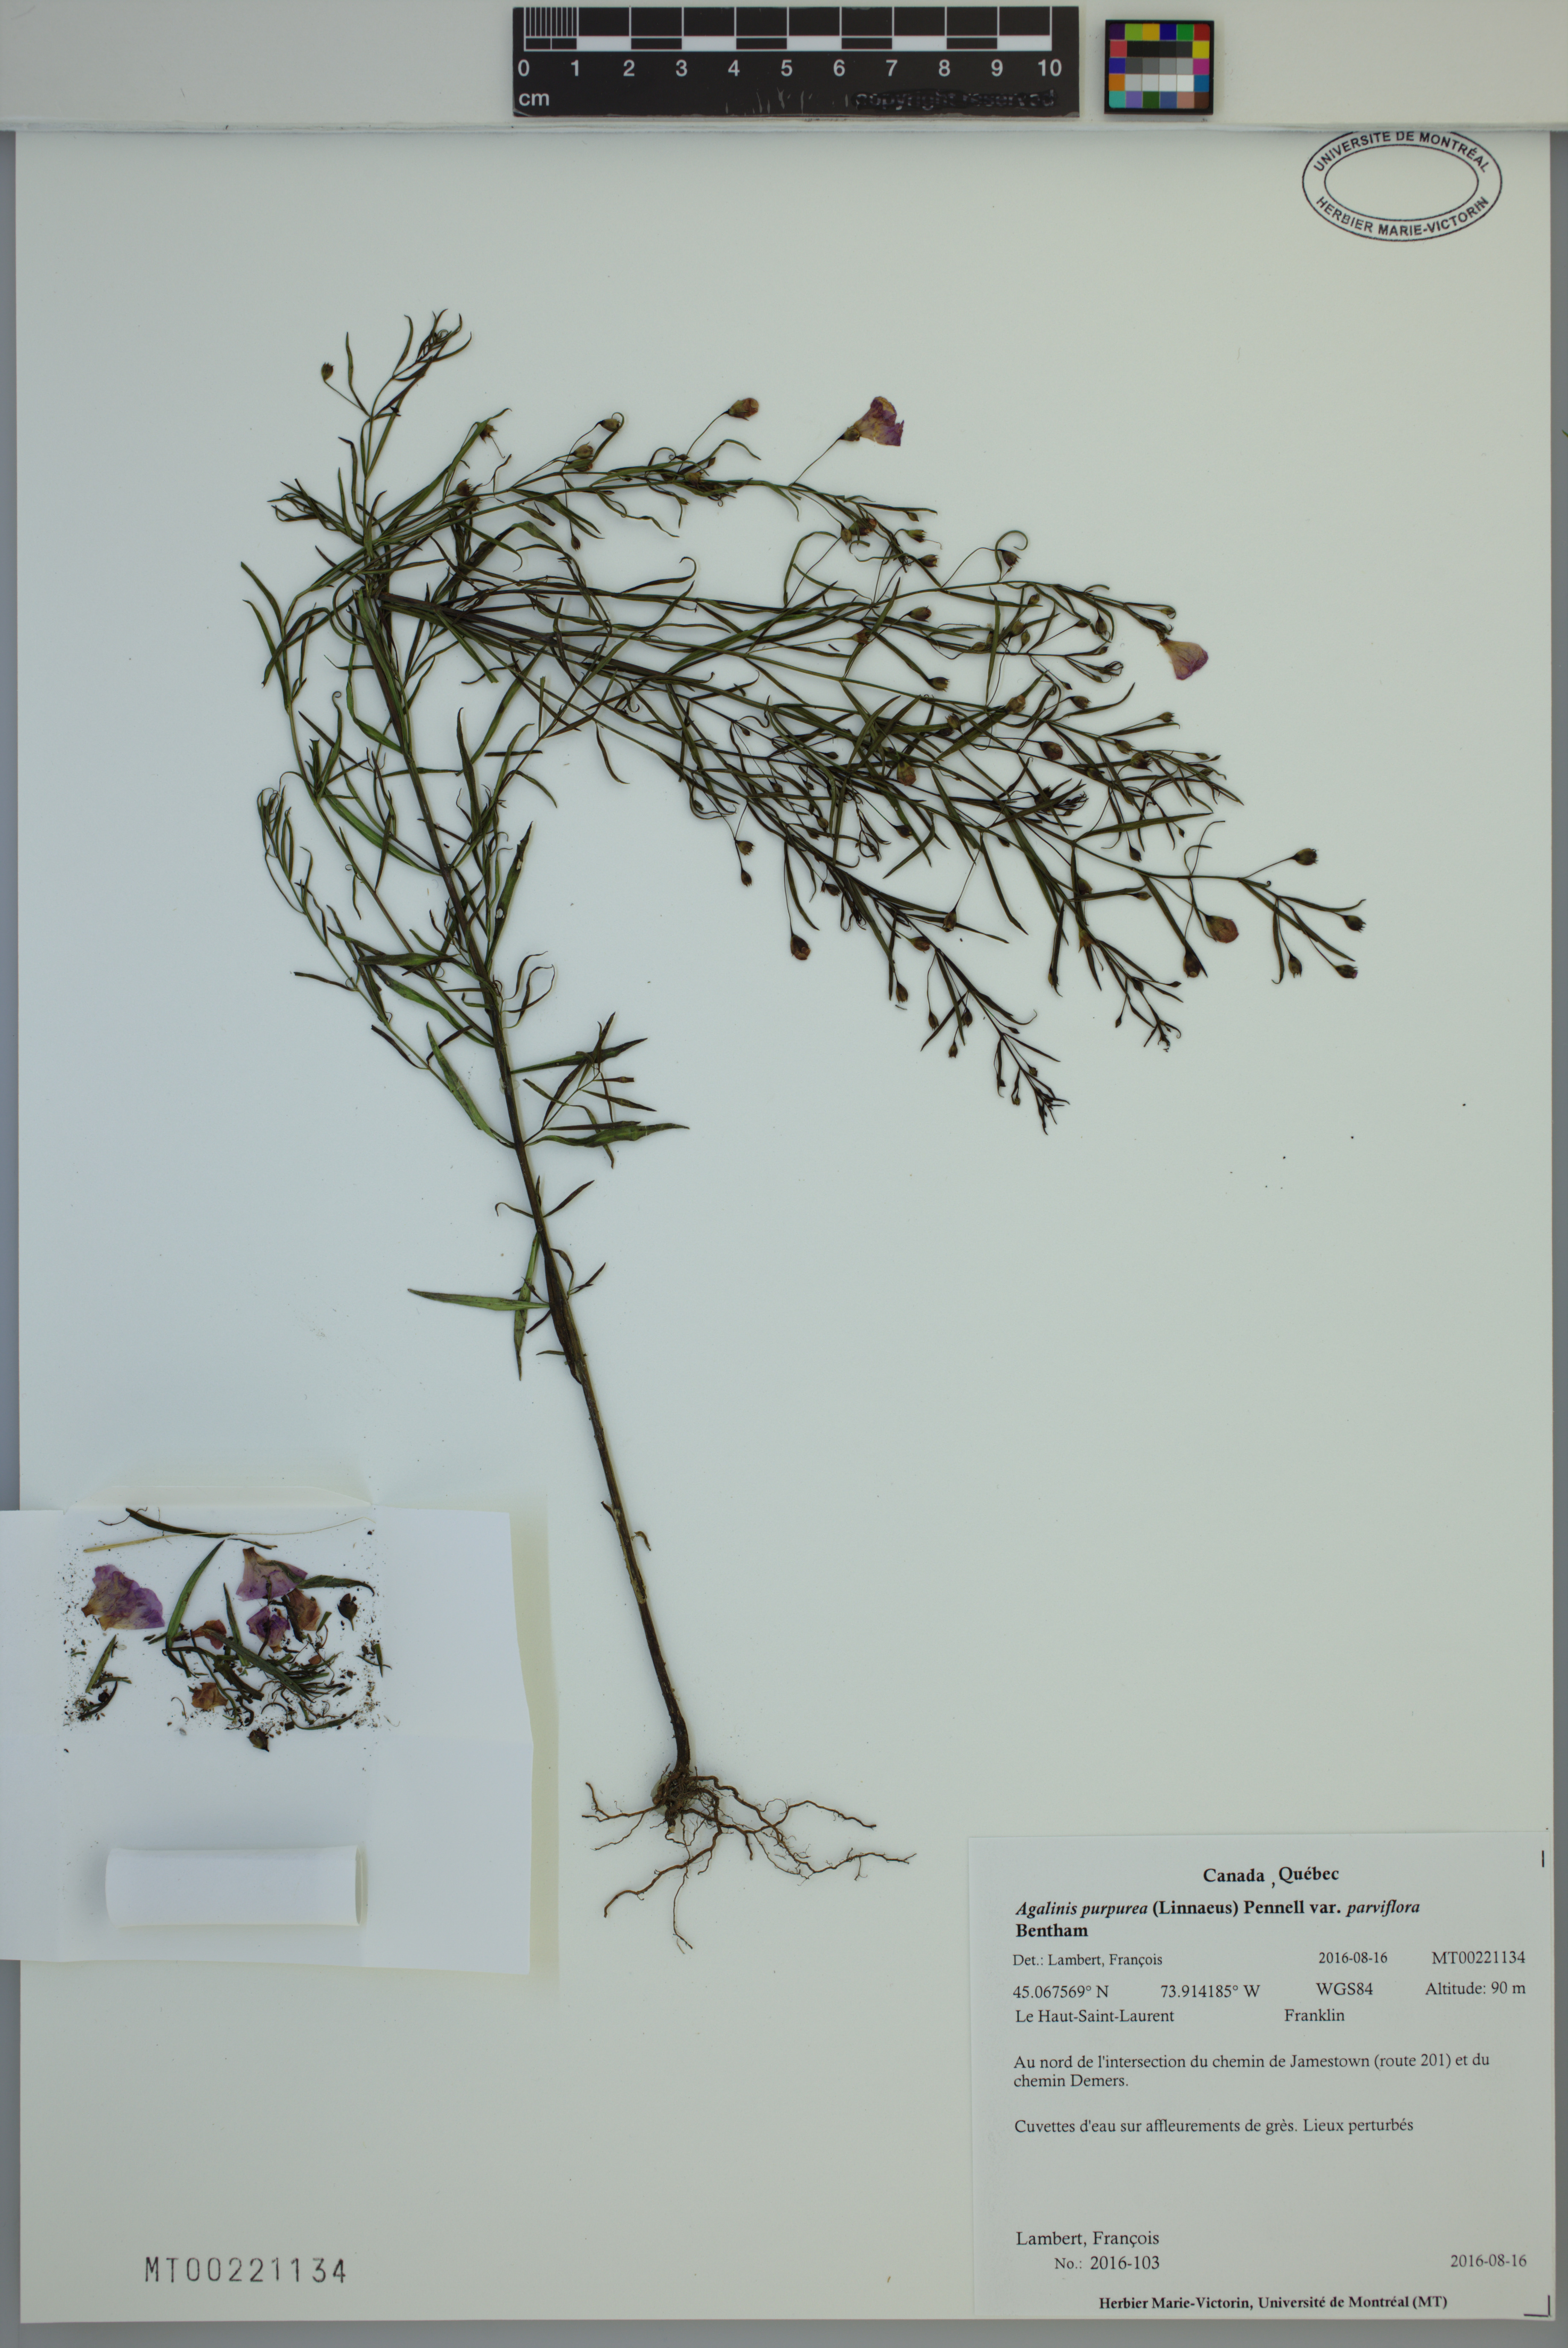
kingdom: Plantae
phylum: Tracheophyta
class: Magnoliopsida
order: Lamiales
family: Orobanchaceae
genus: Agalinis
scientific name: Agalinis purpurea
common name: Purple false foxglove
